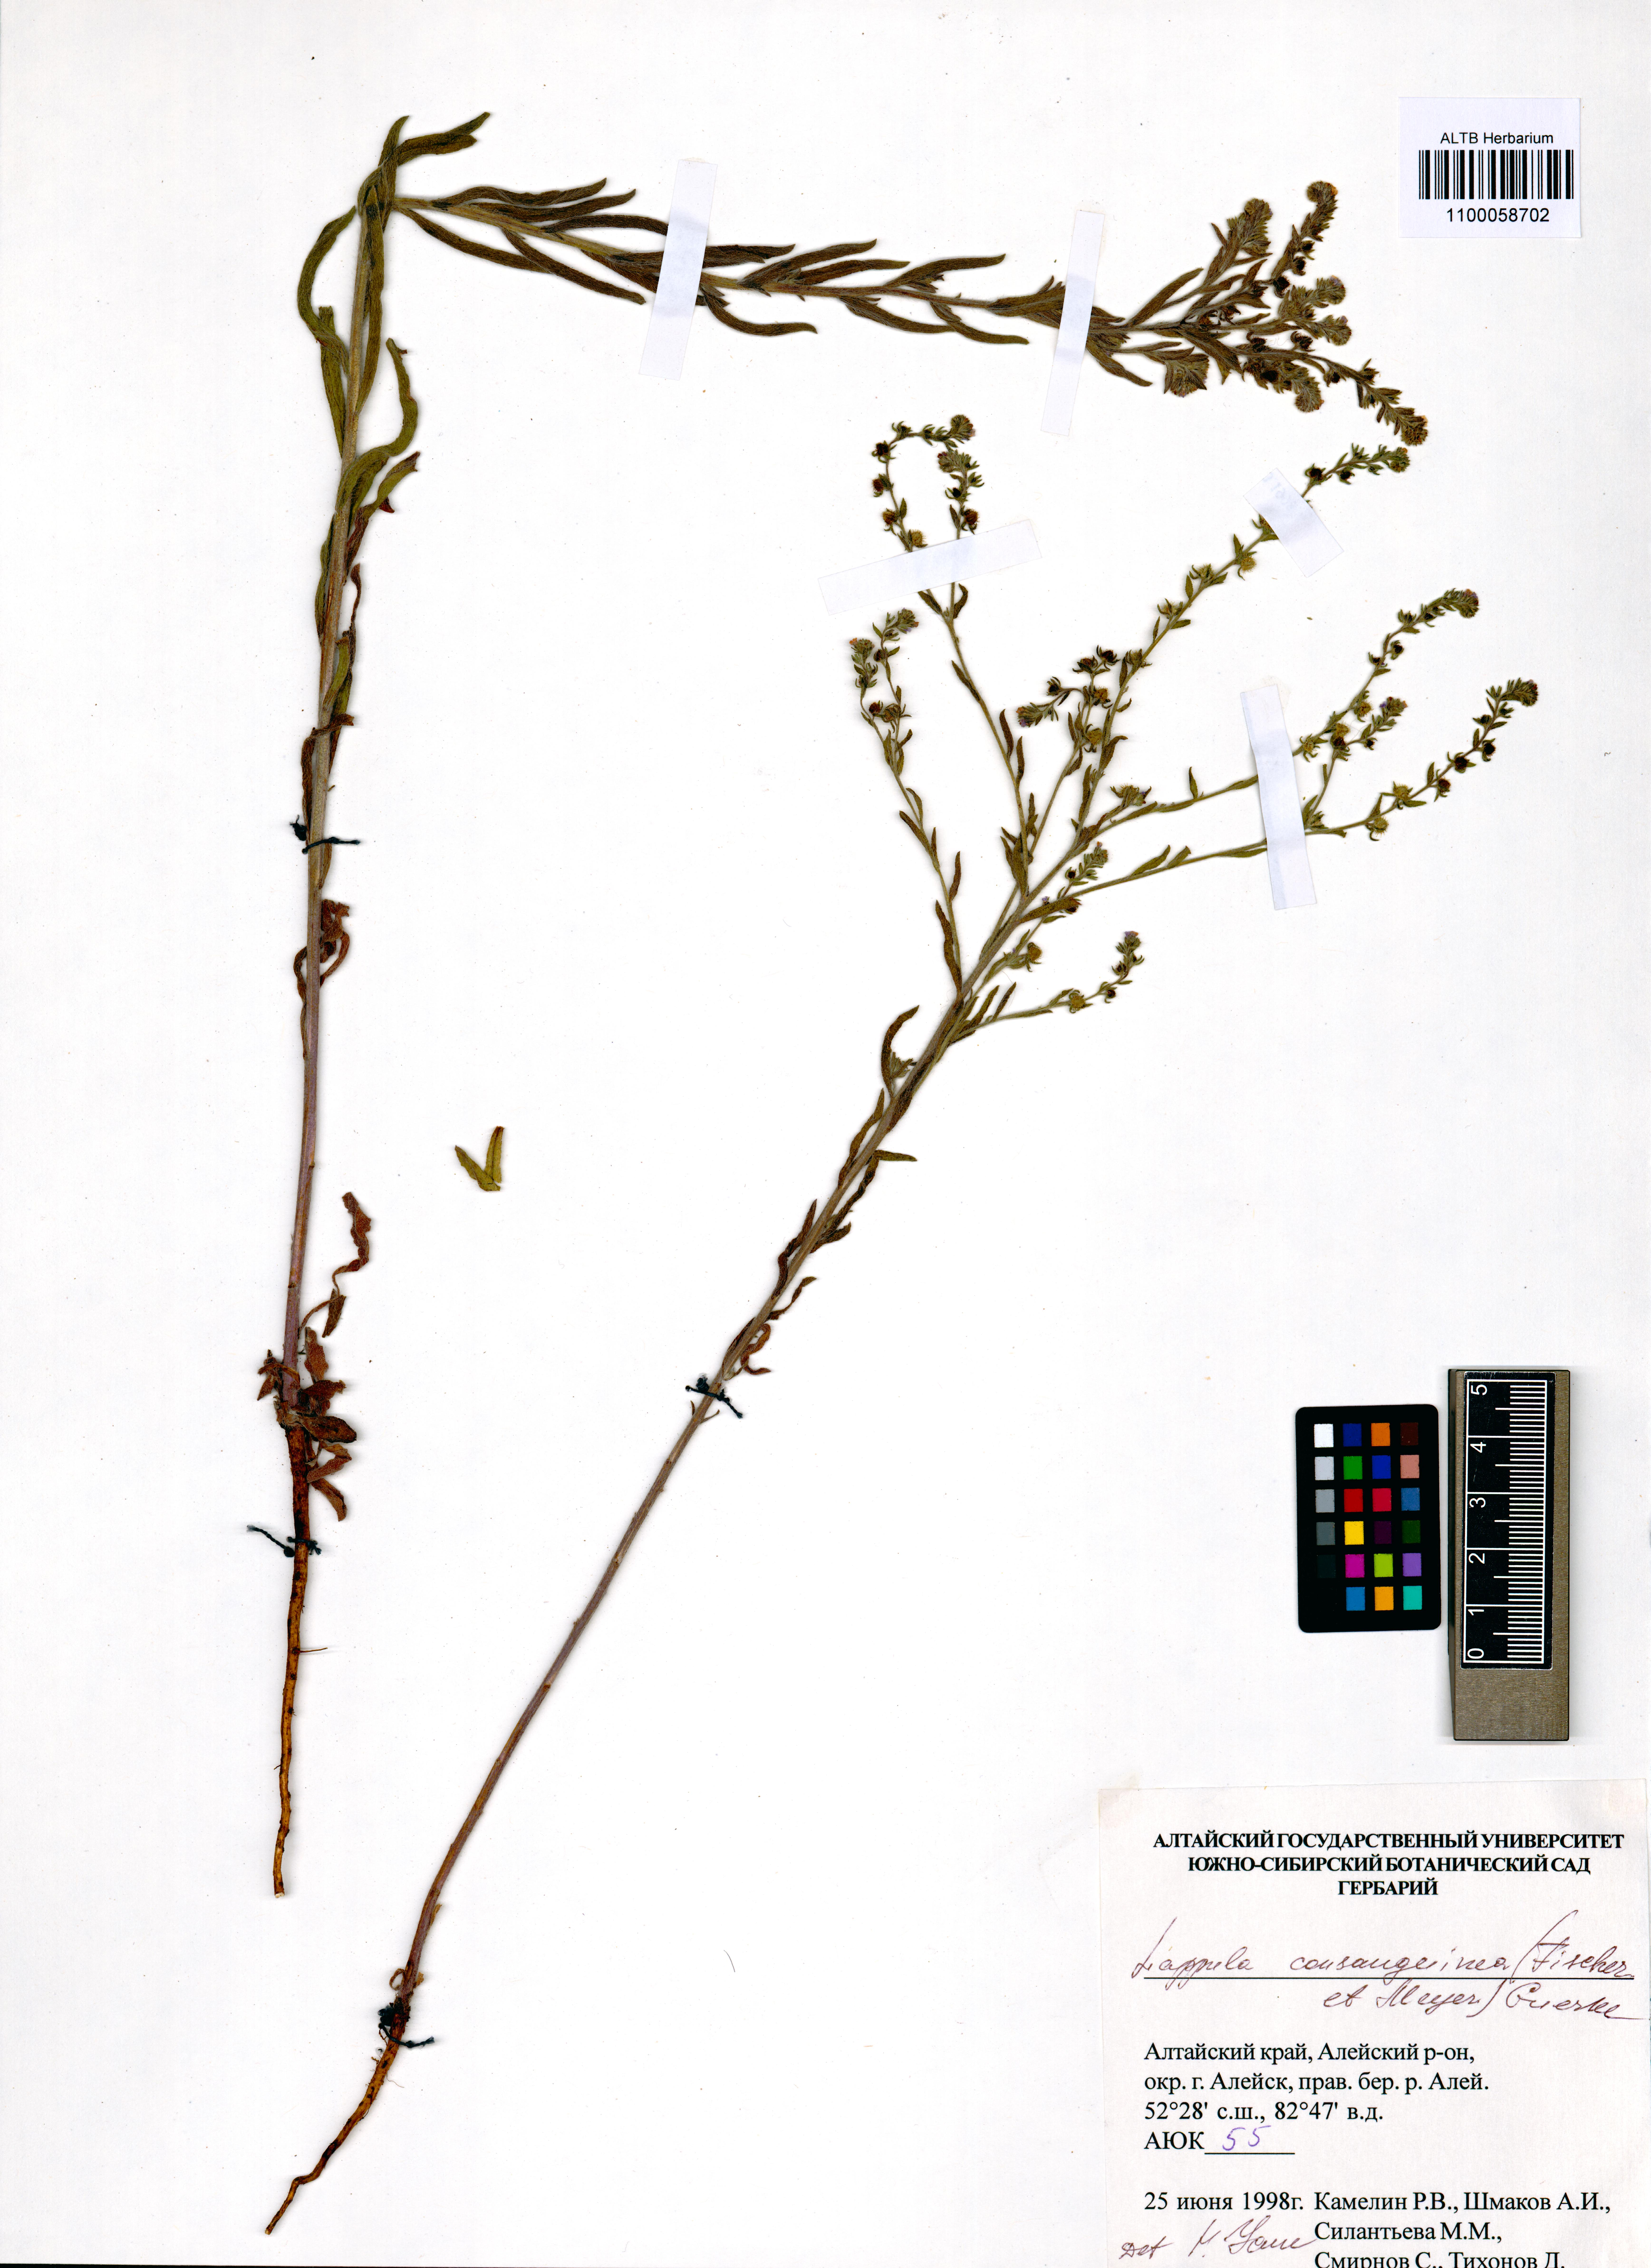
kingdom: Plantae
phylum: Tracheophyta
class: Magnoliopsida
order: Boraginales
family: Boraginaceae
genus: Lappula
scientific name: Lappula squarrosa
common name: European stickseed
